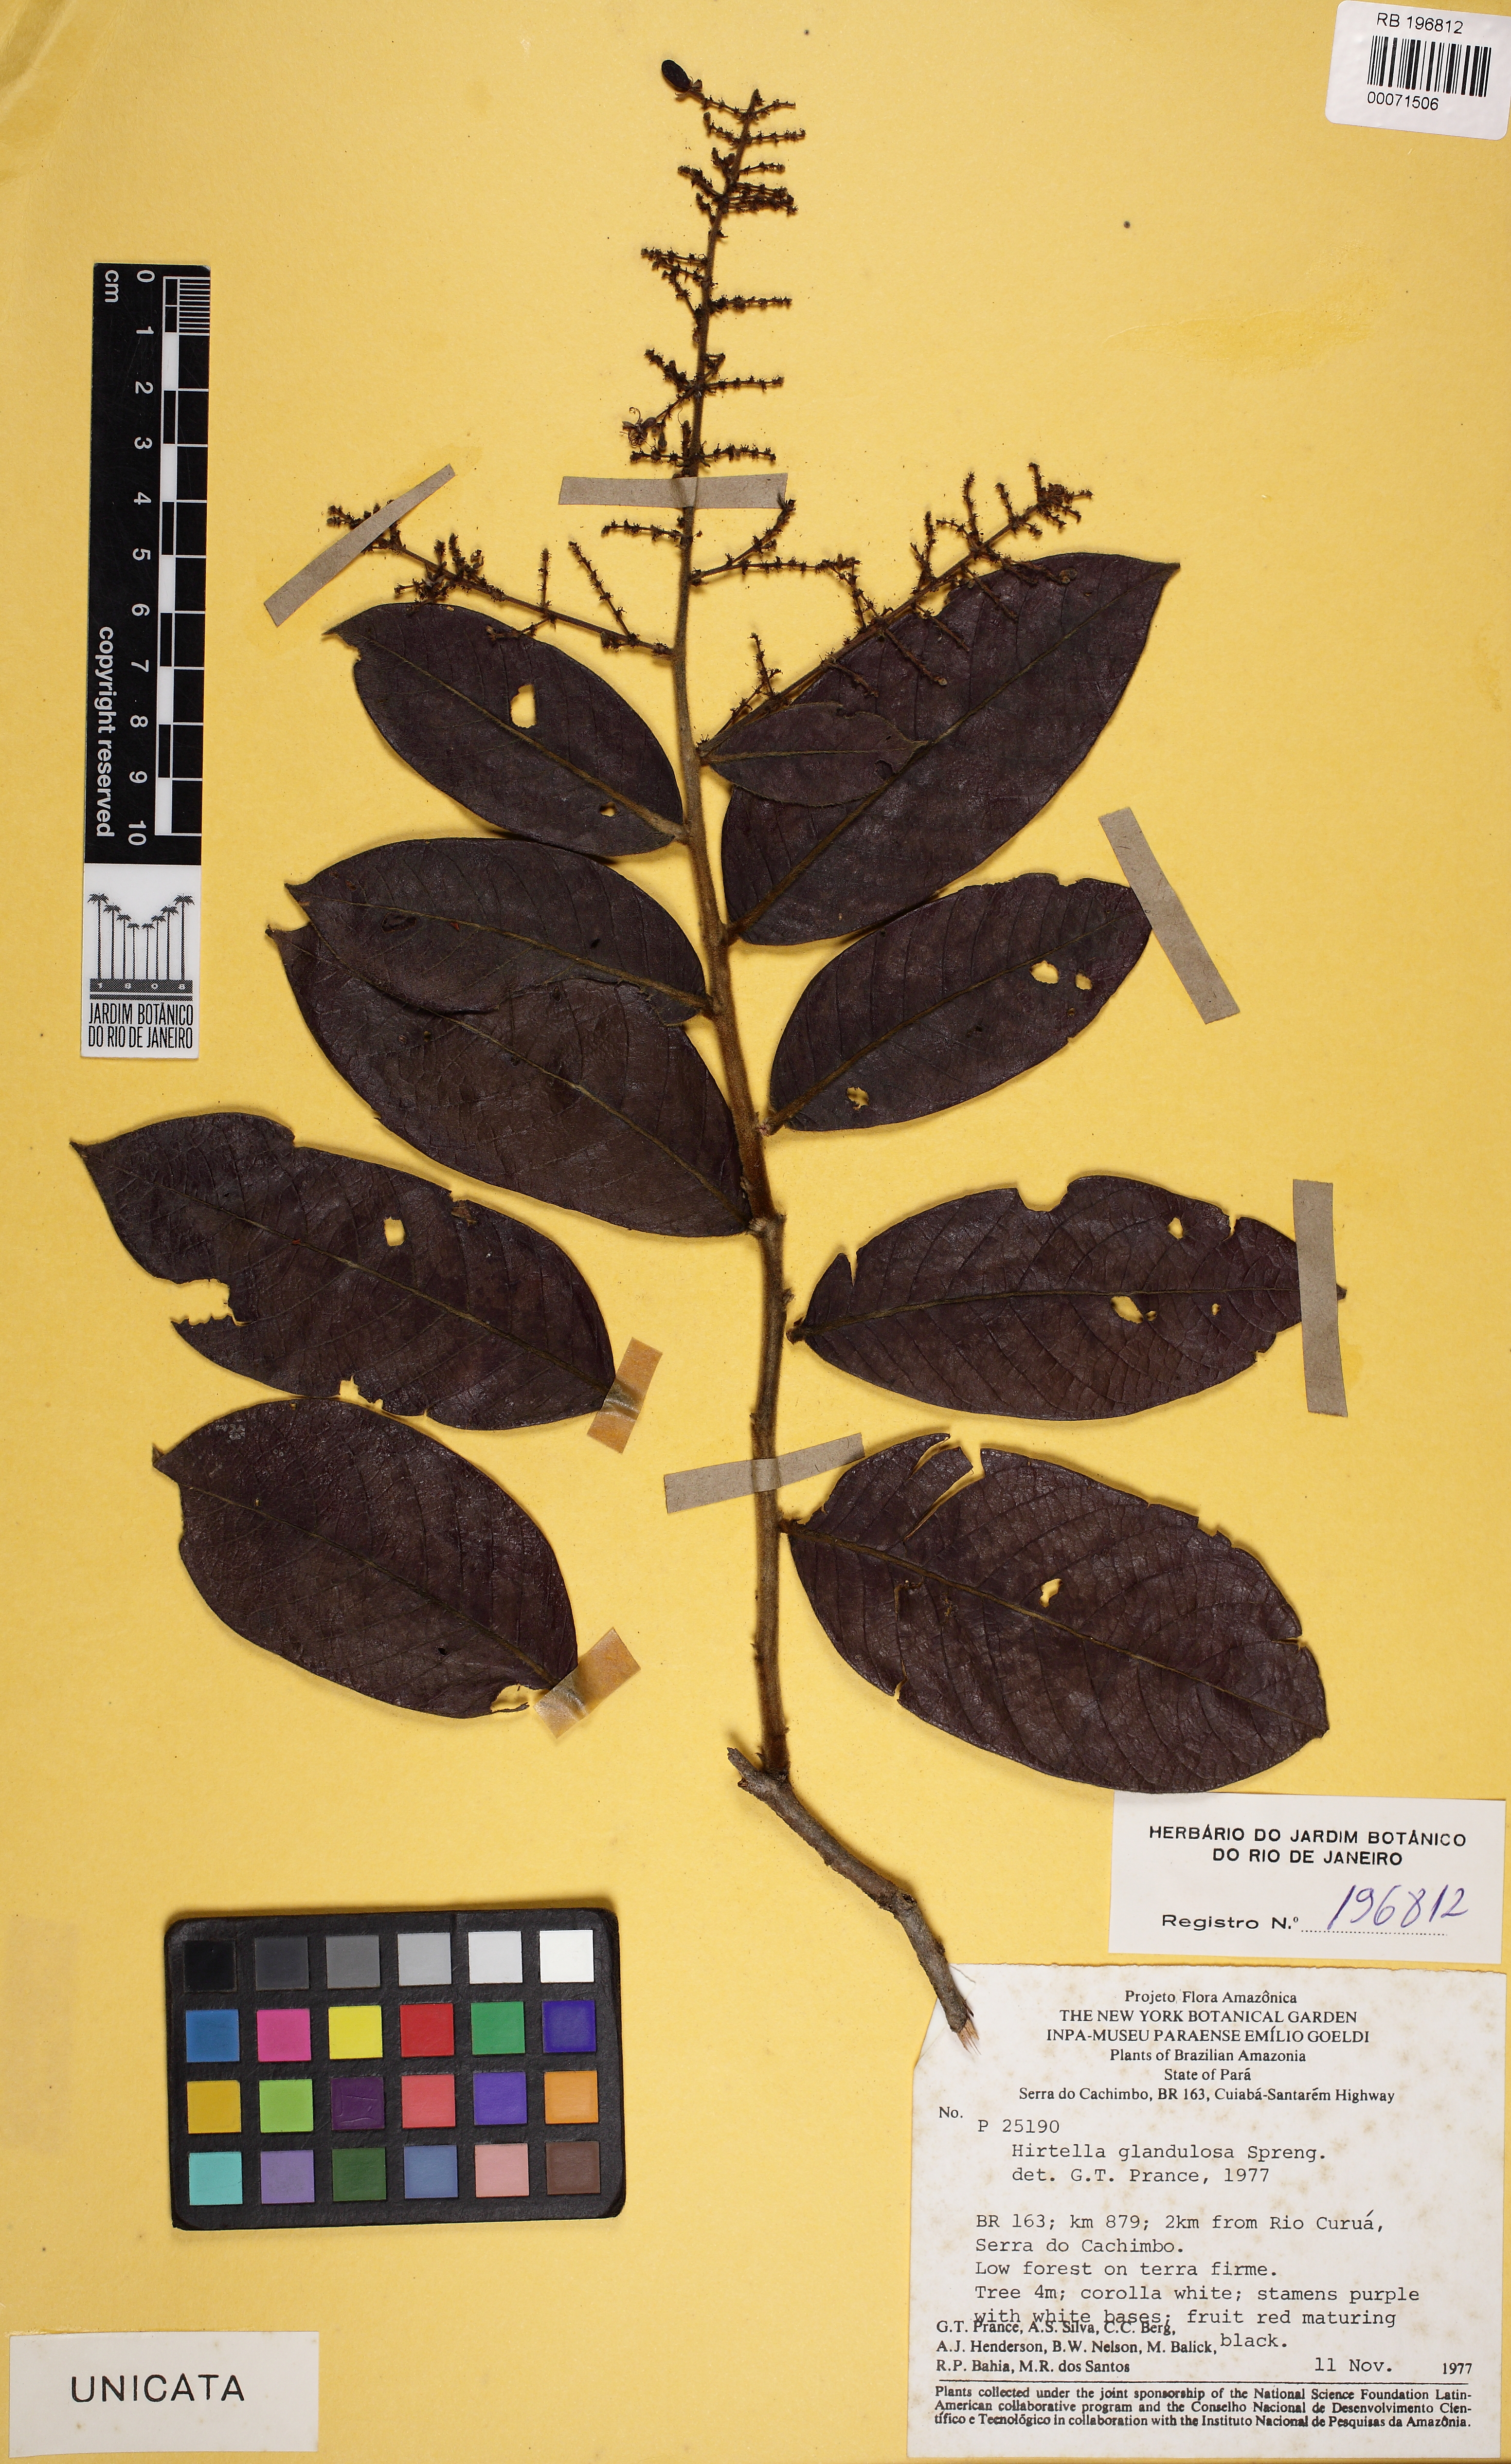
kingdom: Plantae
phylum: Tracheophyta
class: Magnoliopsida
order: Malpighiales
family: Chrysobalanaceae
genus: Hirtella
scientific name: Hirtella glandulosa
